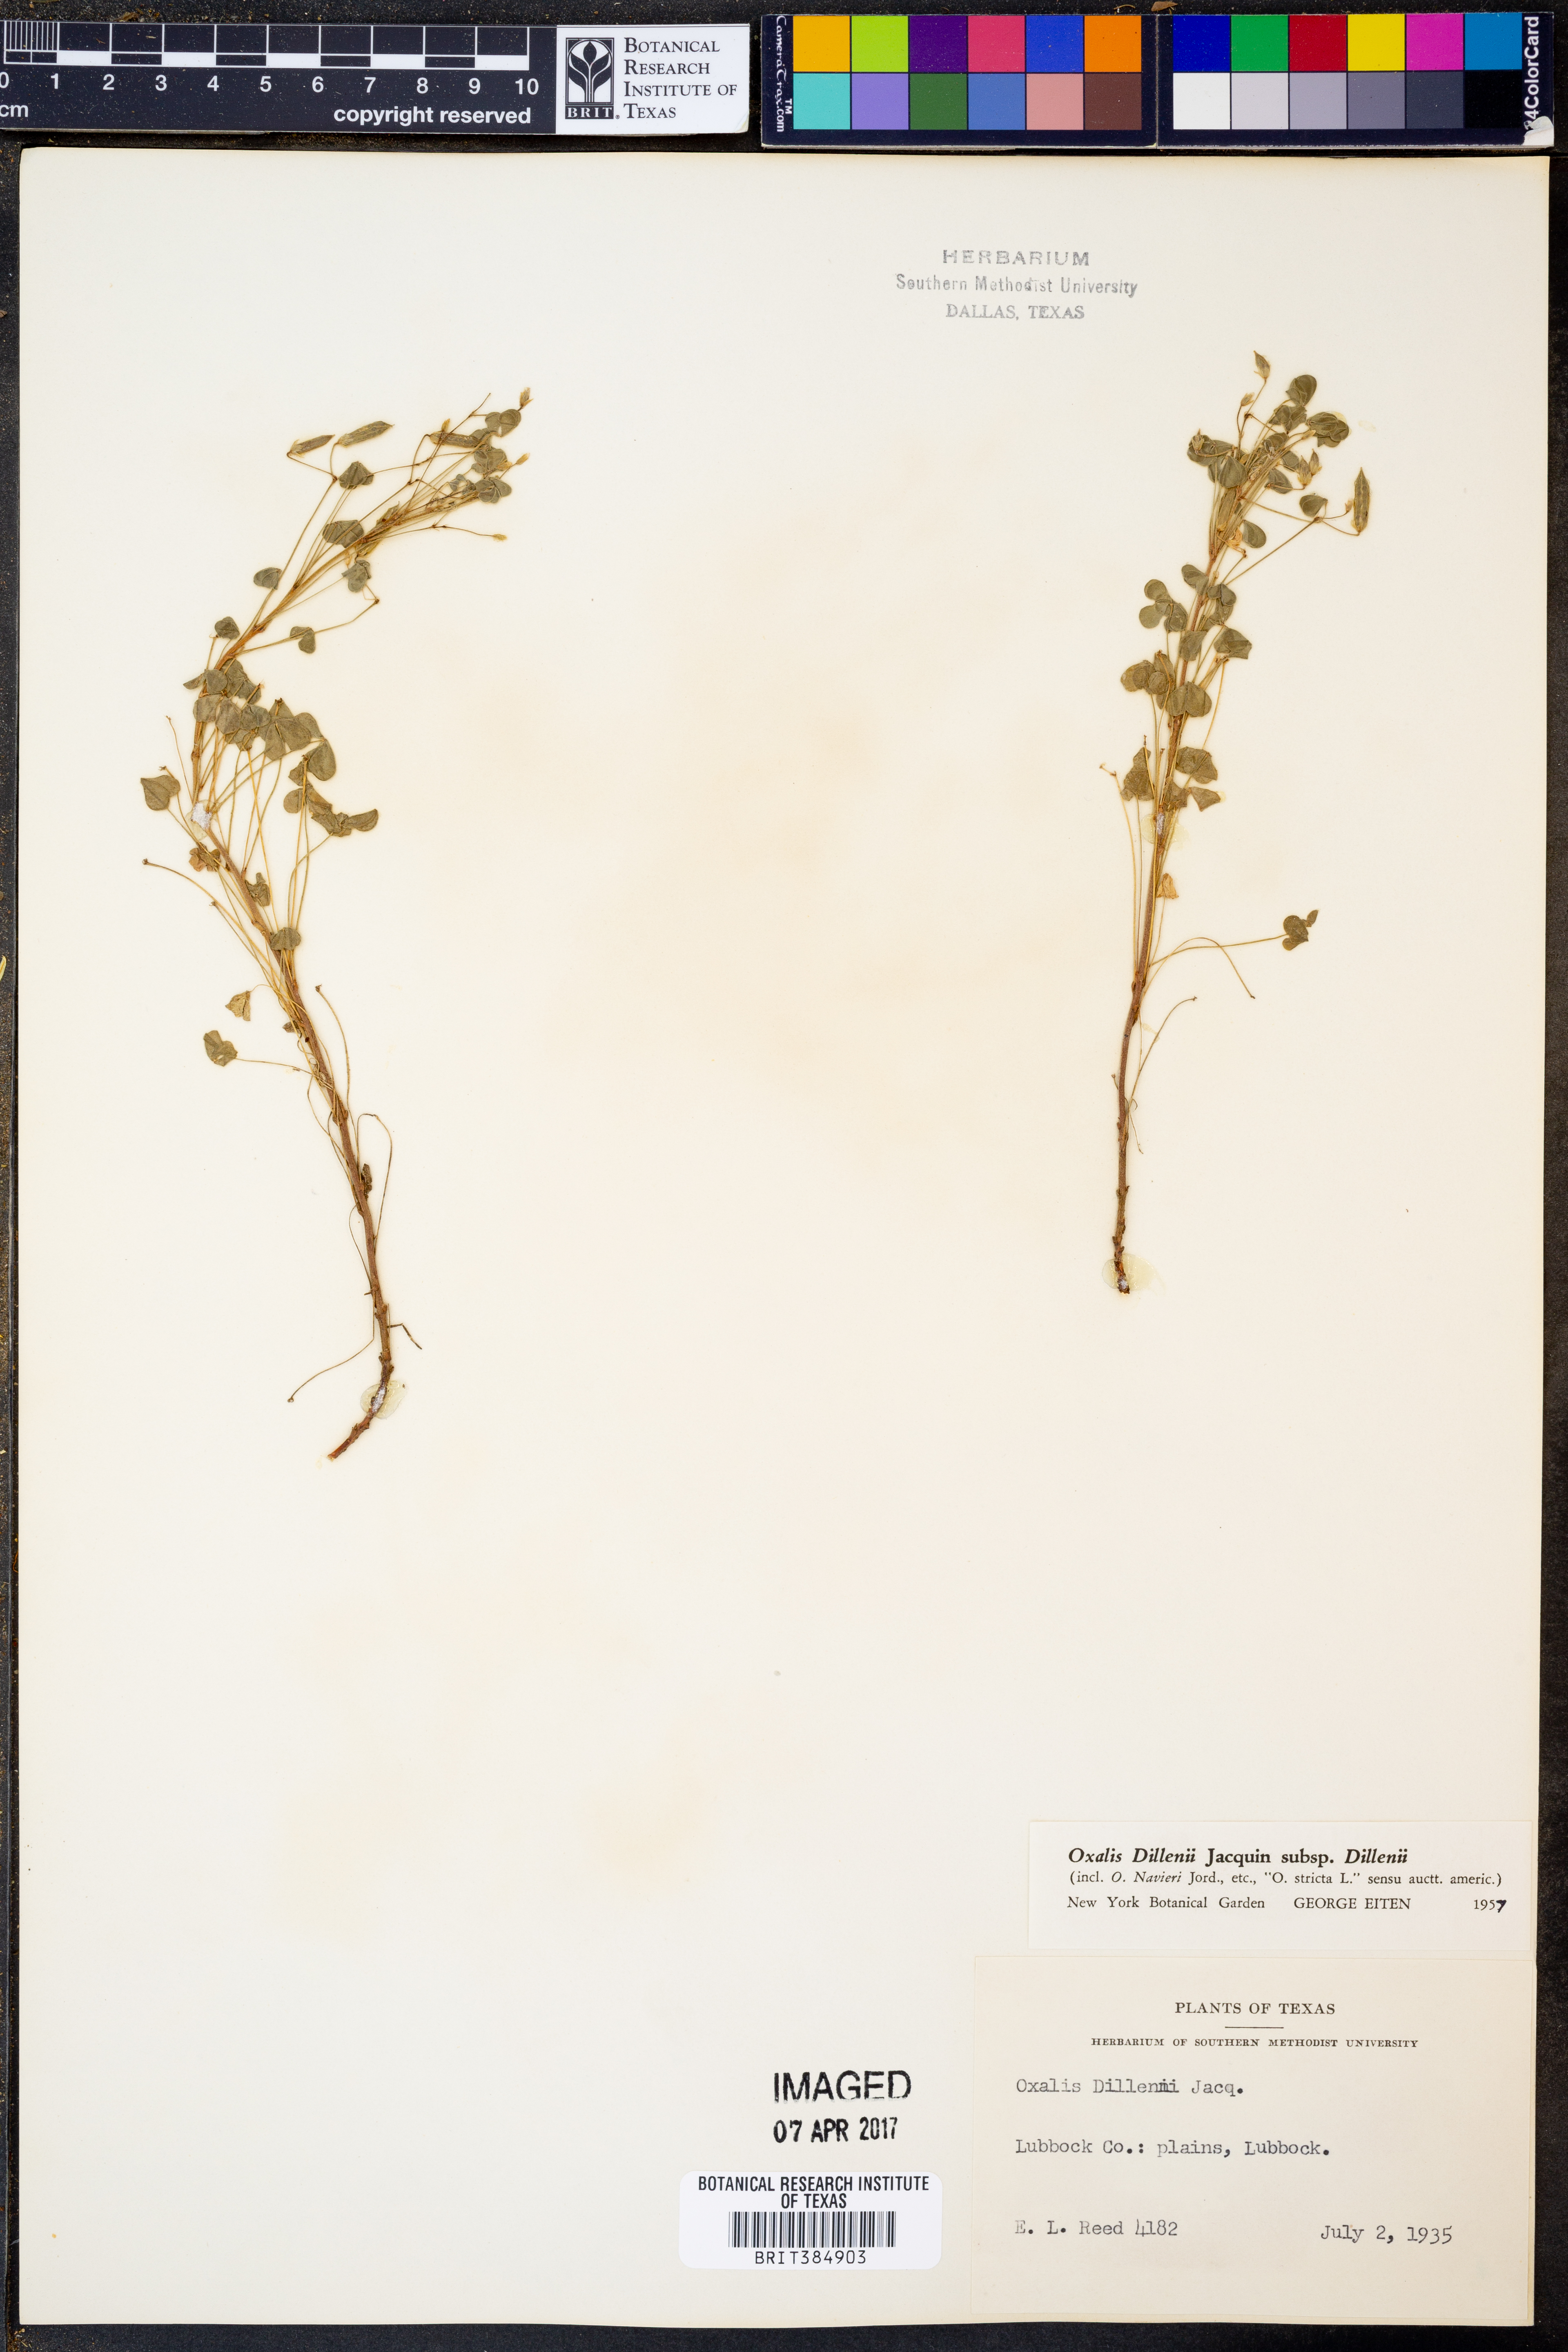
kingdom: Plantae
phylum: Tracheophyta
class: Magnoliopsida
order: Oxalidales
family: Oxalidaceae
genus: Oxalis
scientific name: Oxalis dillenii
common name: Sussex yellow-sorrel
